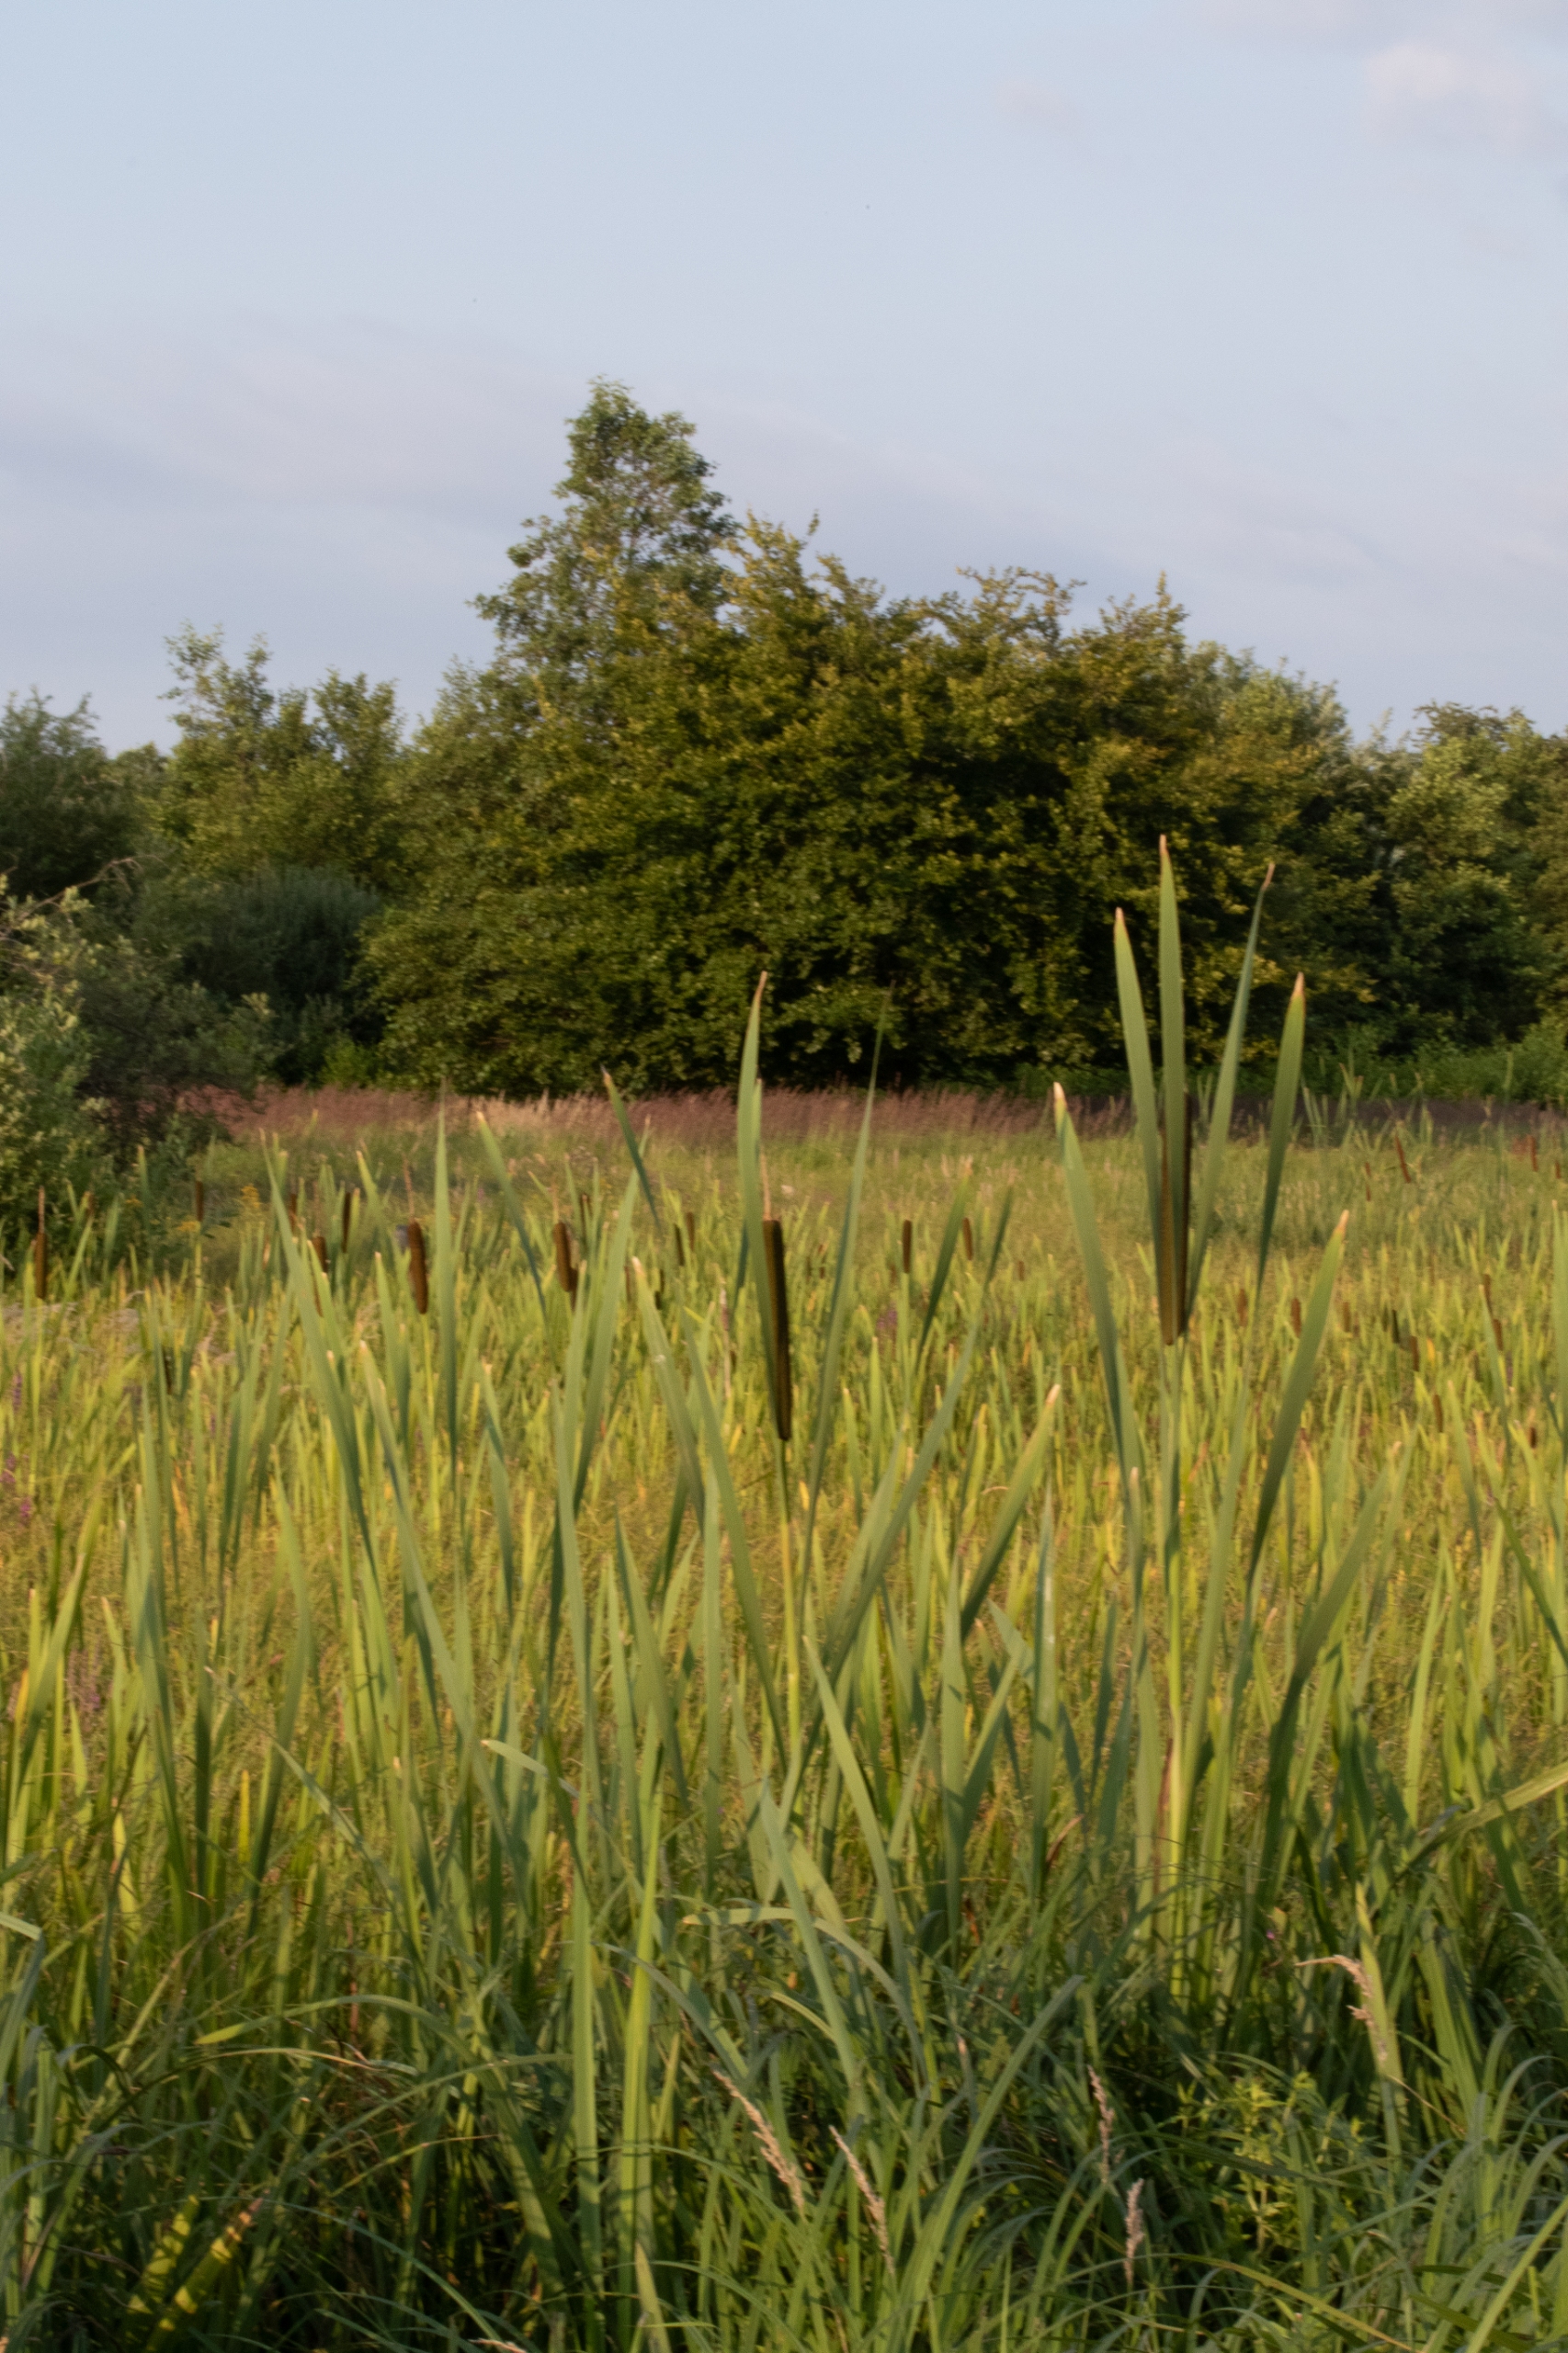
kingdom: Plantae
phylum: Tracheophyta
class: Liliopsida
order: Poales
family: Typhaceae
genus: Typha
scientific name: Typha latifolia
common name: Bredbladet dunhammer
